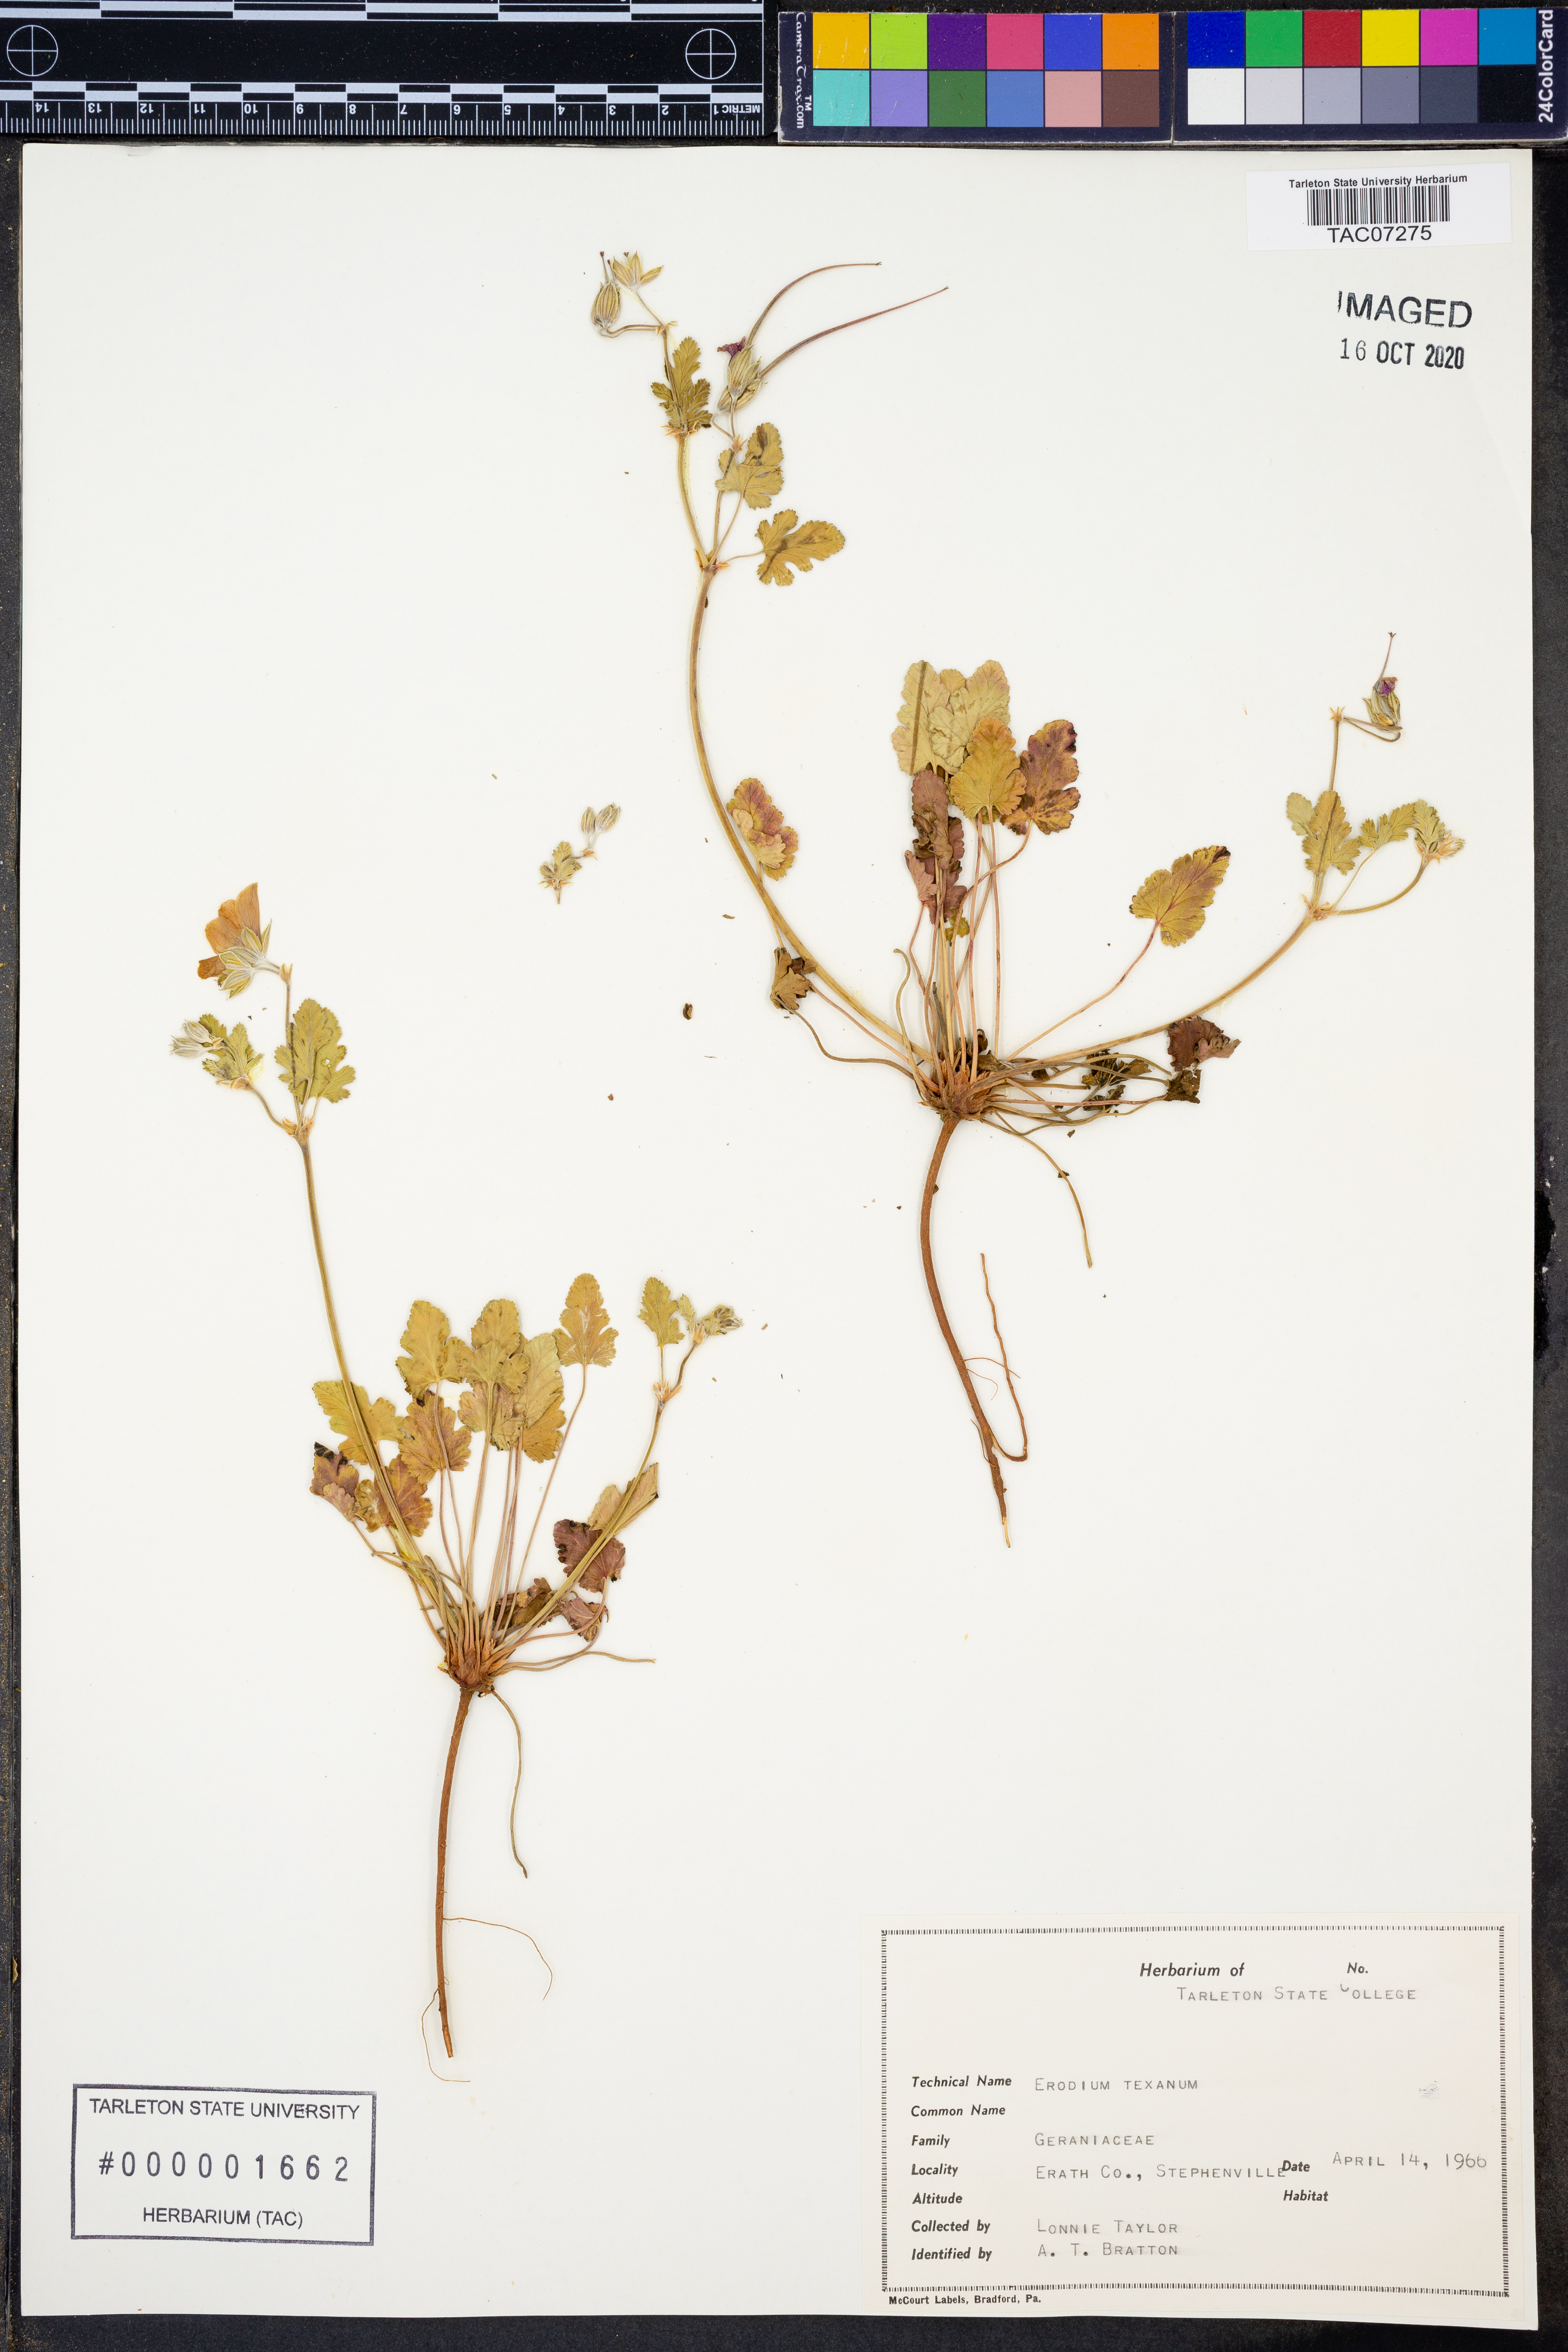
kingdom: Plantae
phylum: Tracheophyta
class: Magnoliopsida
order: Geraniales
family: Geraniaceae
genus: Erodium
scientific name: Erodium texanum
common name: Texas stork's-bill
